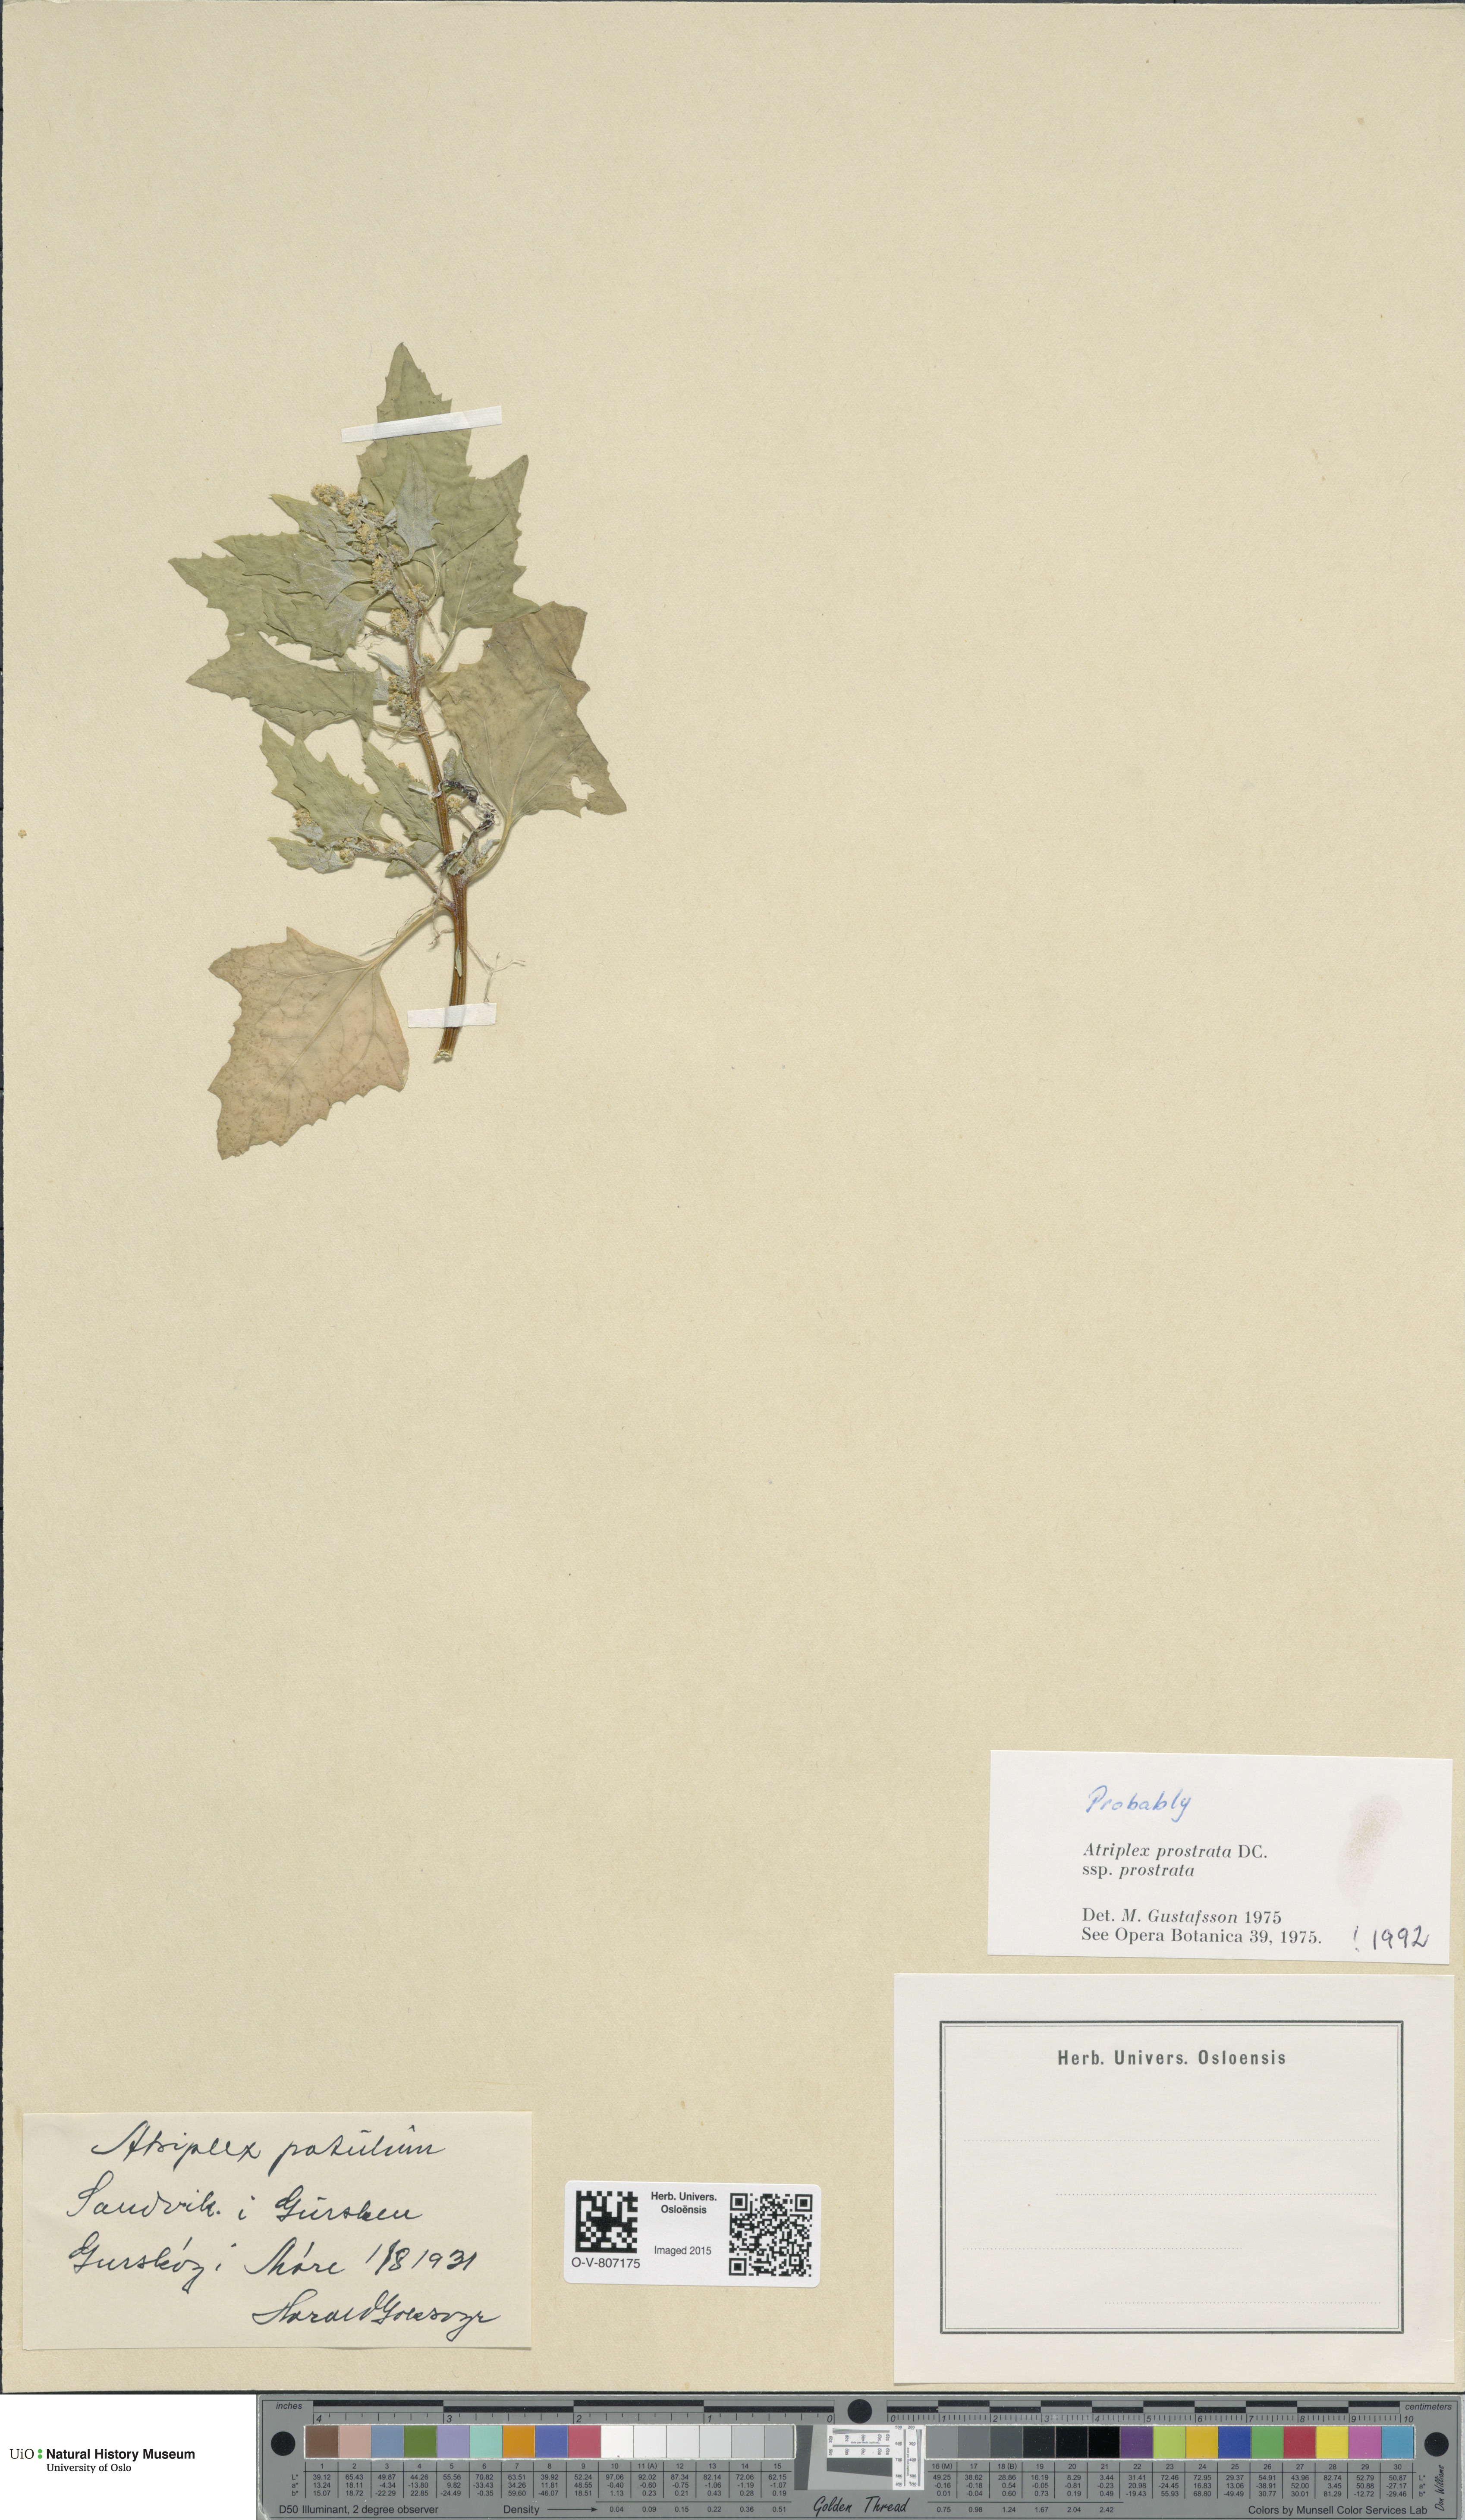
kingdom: Plantae
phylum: Tracheophyta
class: Magnoliopsida
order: Caryophyllales
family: Amaranthaceae
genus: Atriplex
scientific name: Atriplex prostrata
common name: Spear-leaved orache
